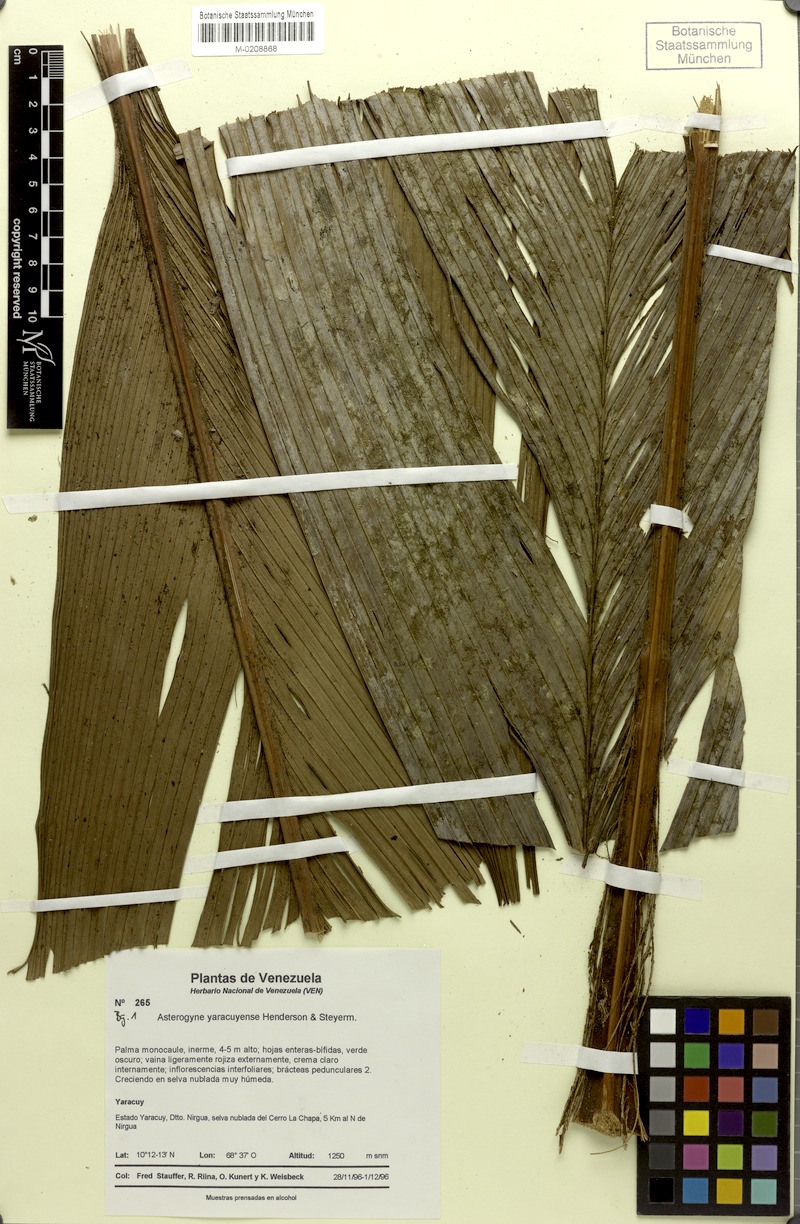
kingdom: Plantae
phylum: Tracheophyta
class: Liliopsida
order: Arecales
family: Arecaceae
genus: Asterogyne
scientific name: Asterogyne yaracuyense
